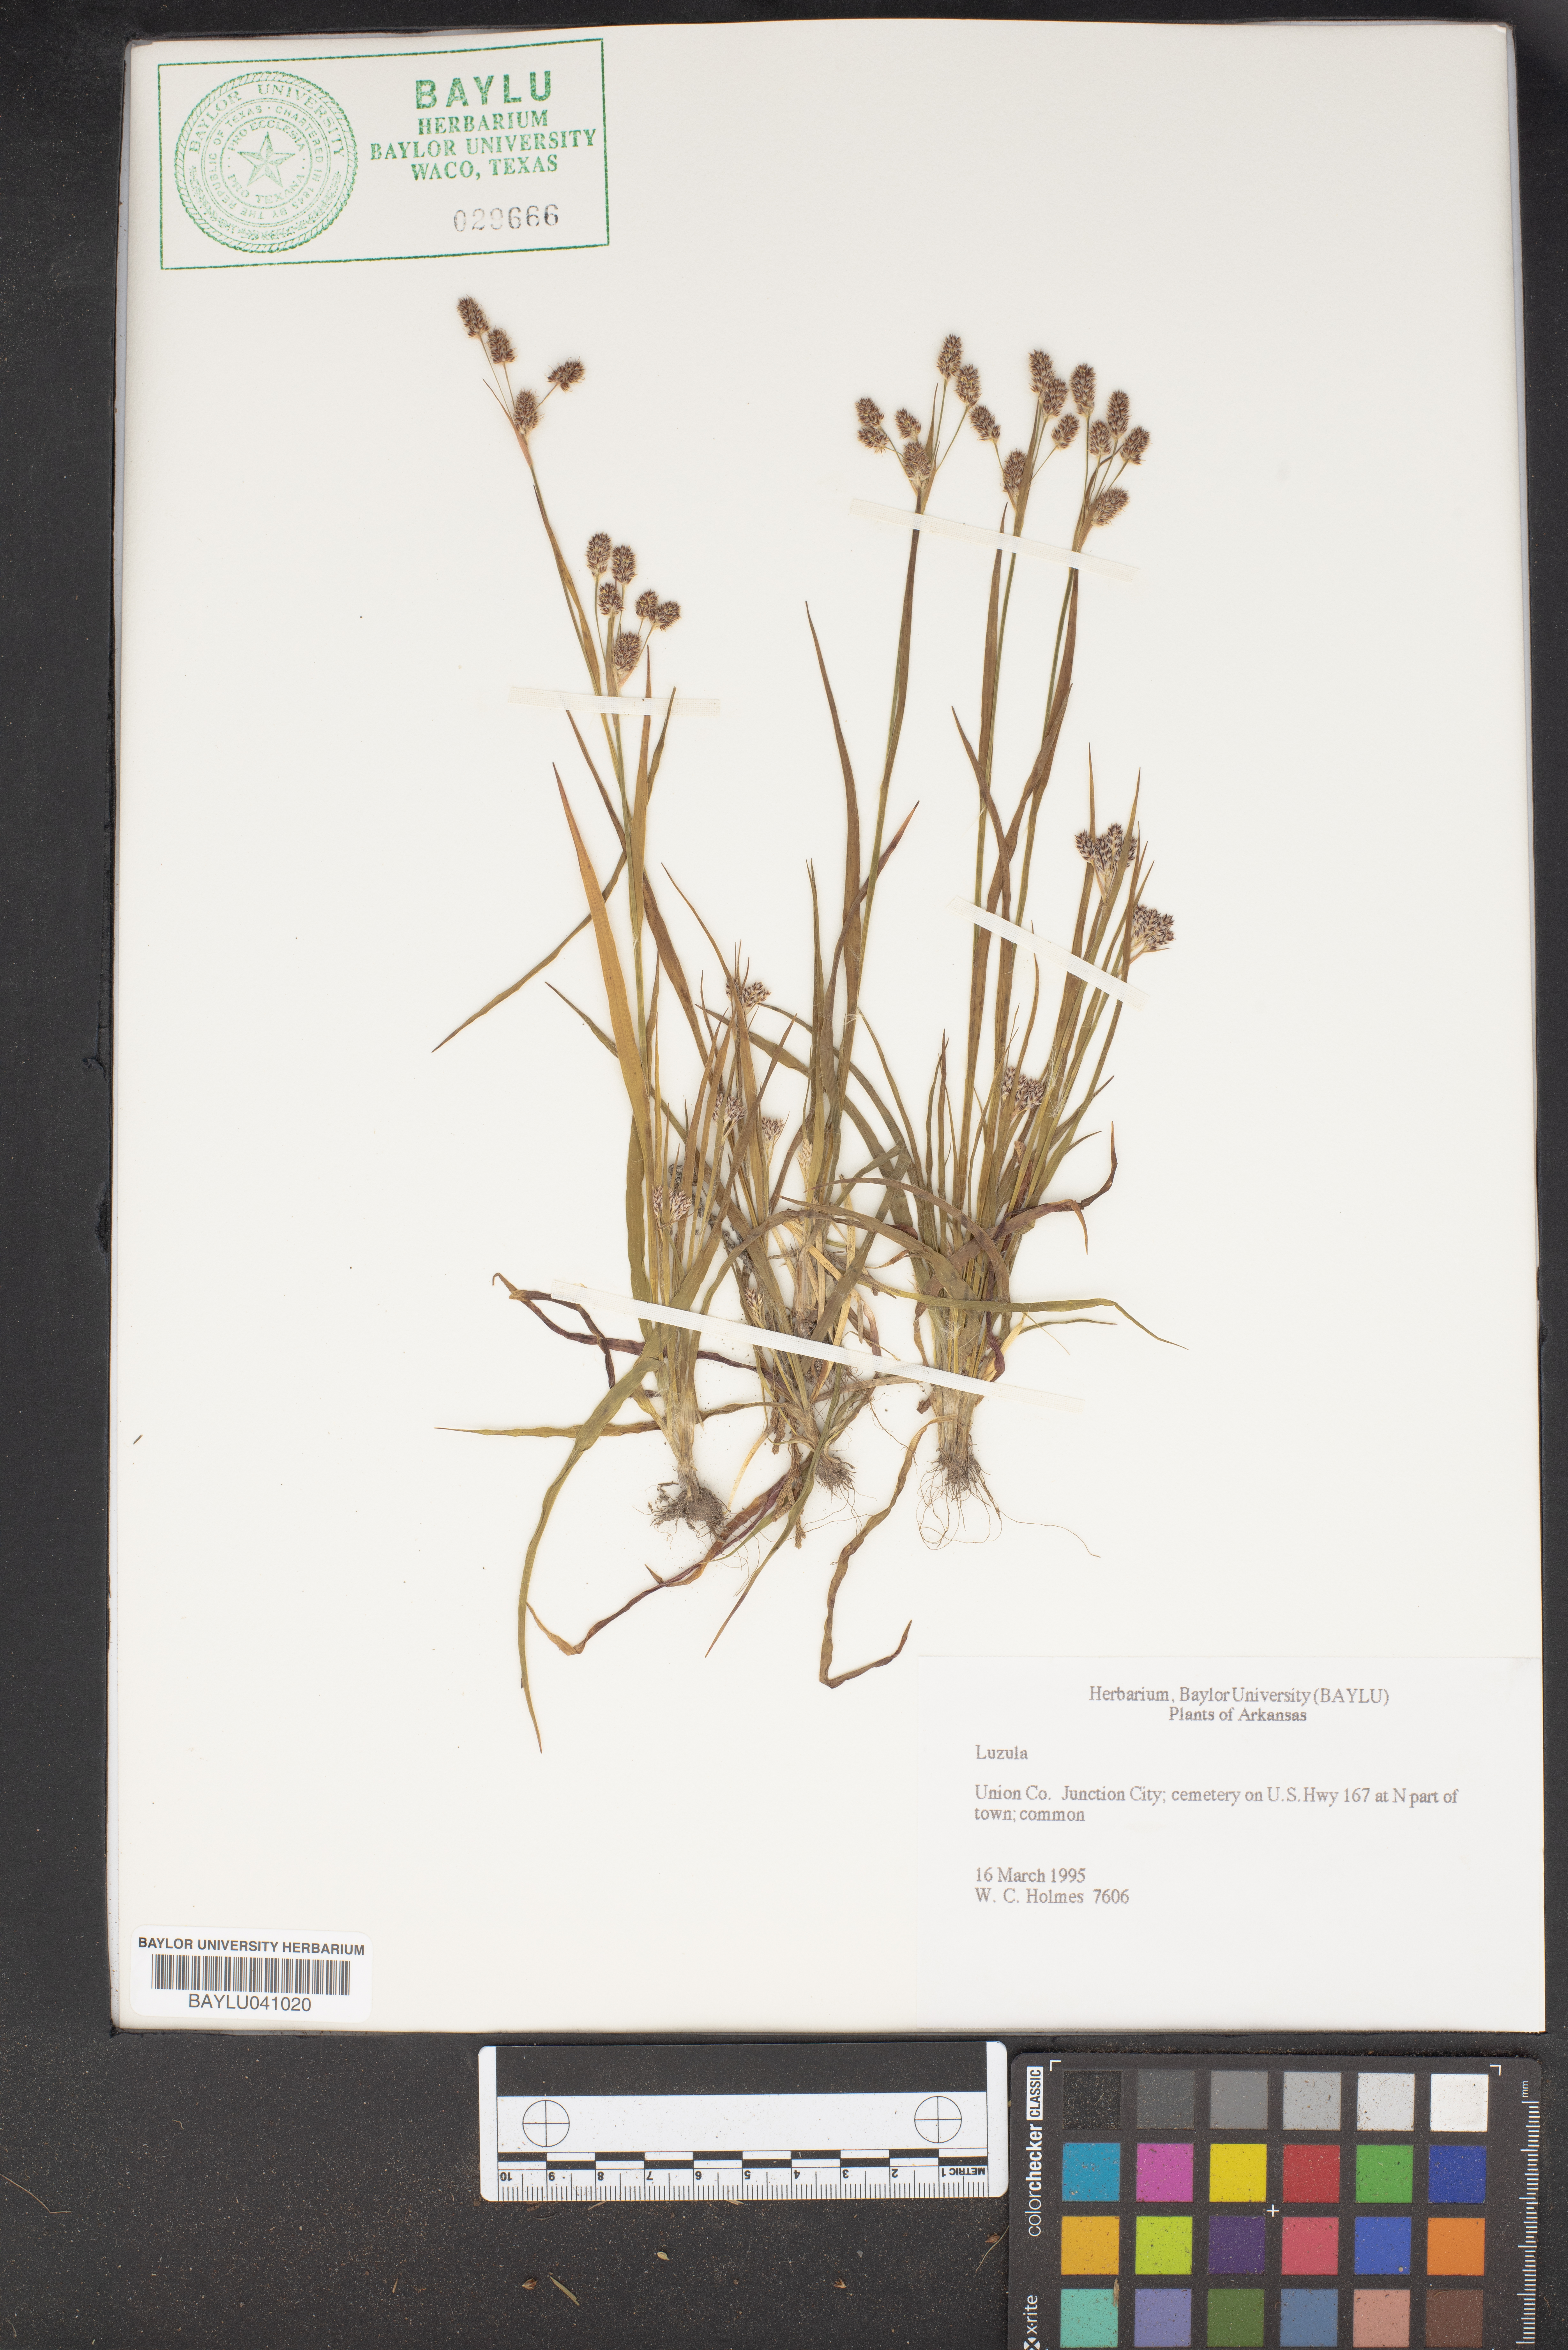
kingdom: Plantae
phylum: Tracheophyta
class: Liliopsida
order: Poales
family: Juncaceae
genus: Luzula
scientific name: Luzula
